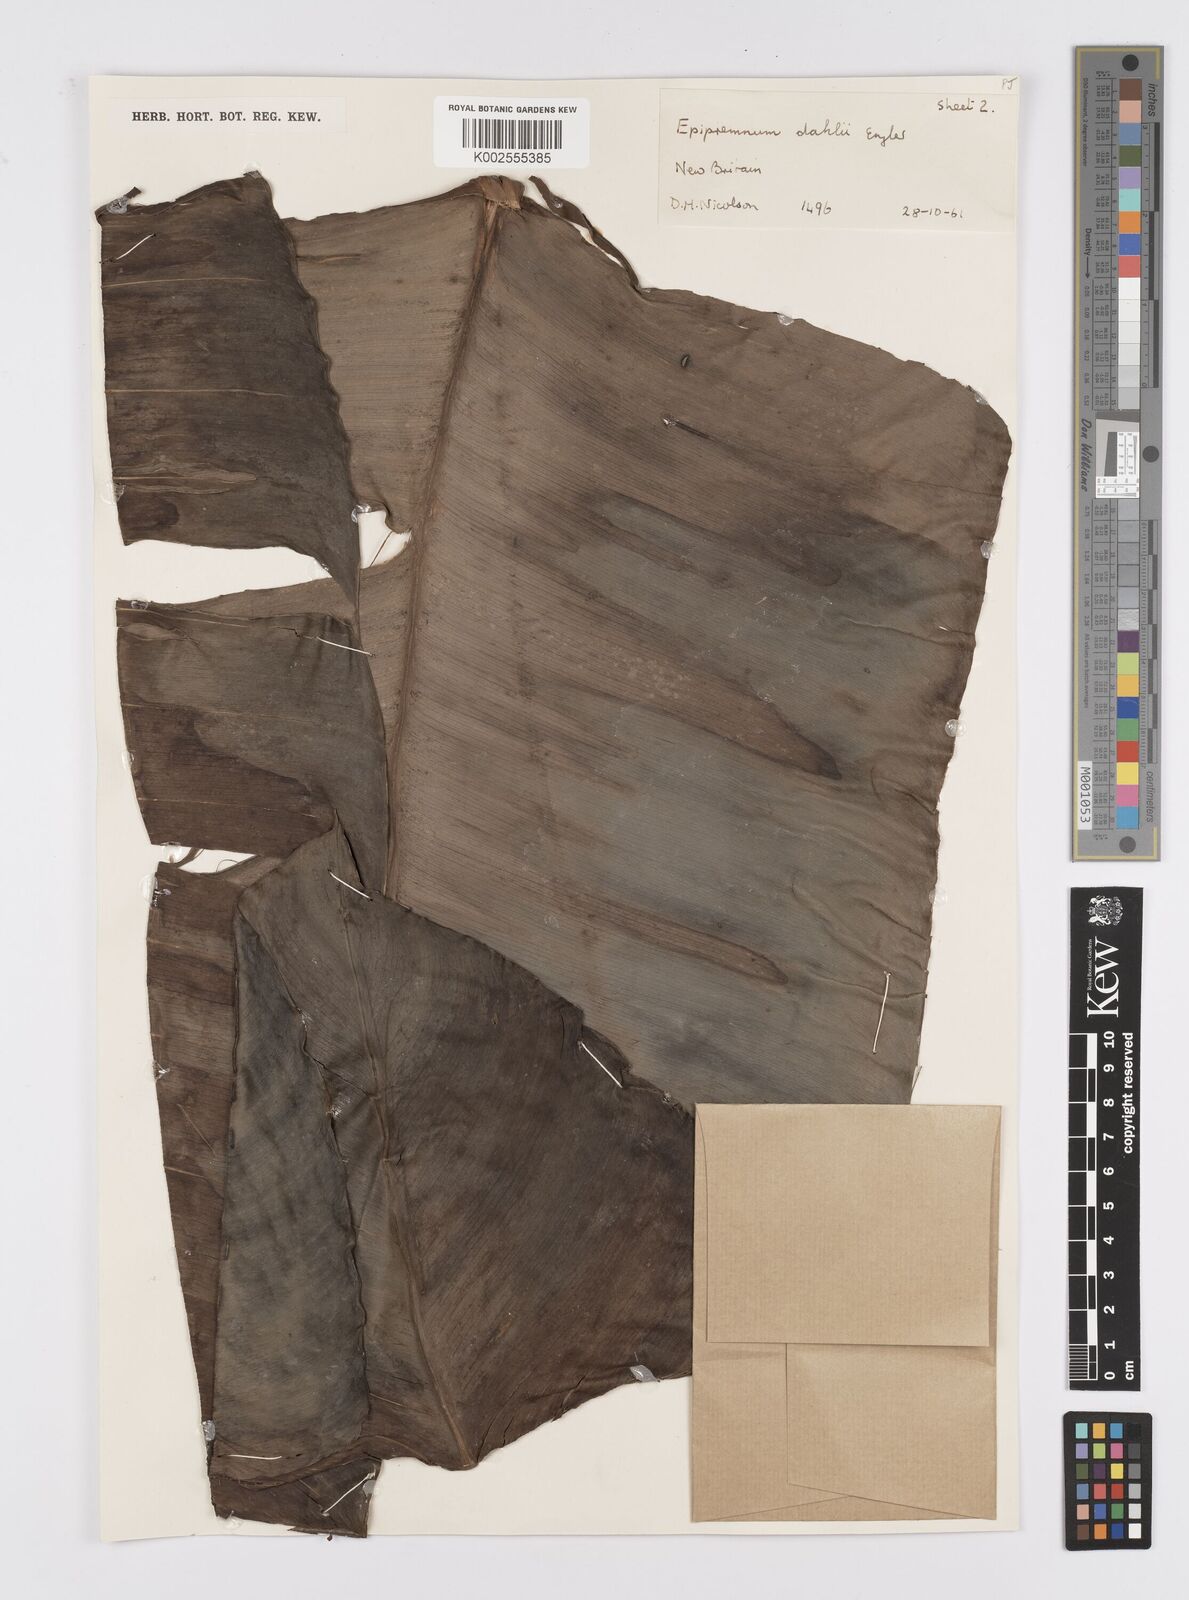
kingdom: Plantae
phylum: Tracheophyta
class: Liliopsida
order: Alismatales
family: Araceae
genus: Epipremnum
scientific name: Epipremnum dahlii
